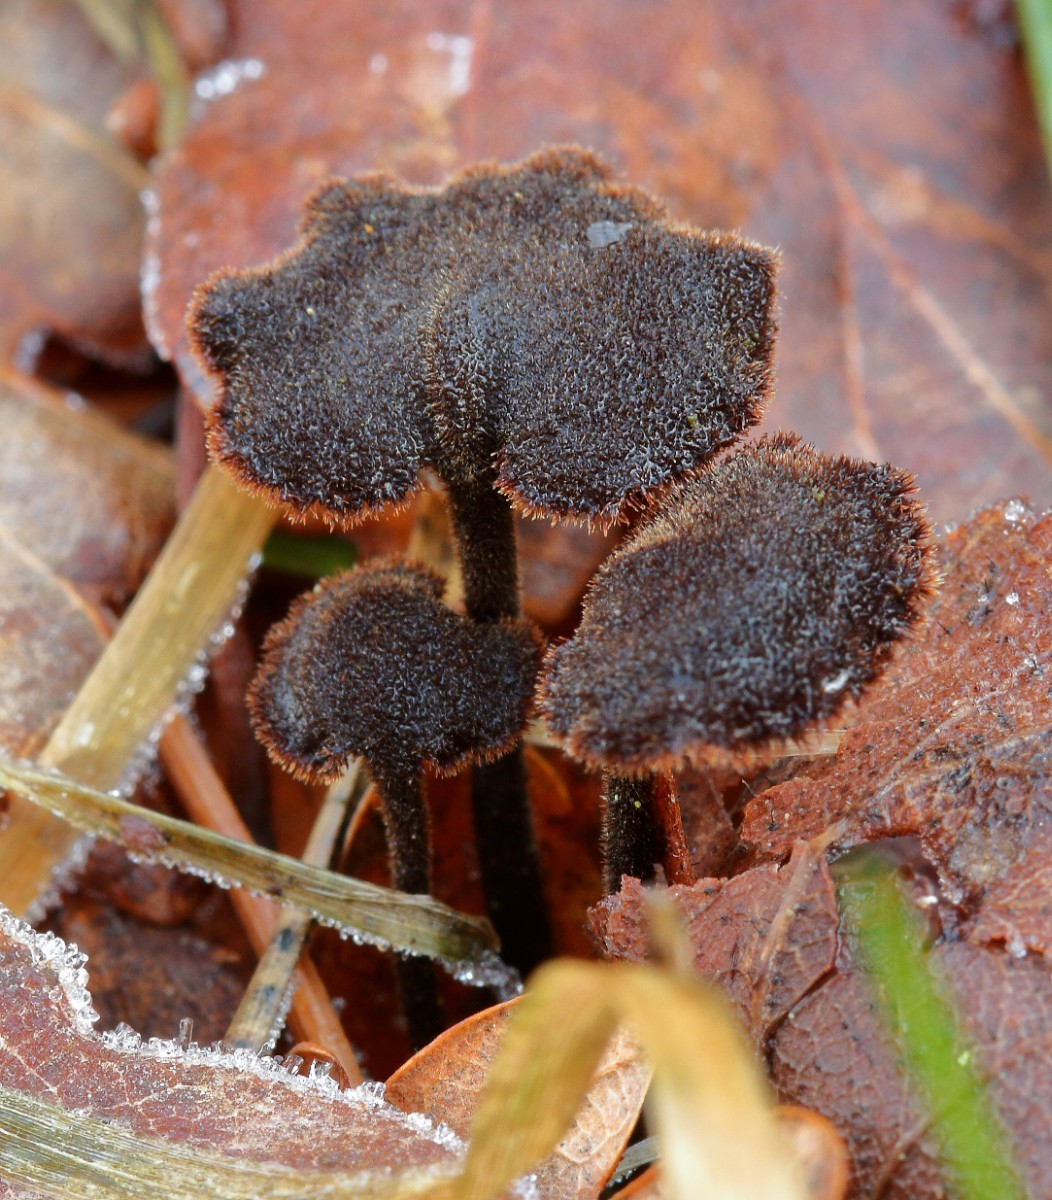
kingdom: Fungi
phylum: Basidiomycota
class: Agaricomycetes
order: Russulales
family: Auriscalpiaceae
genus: Auriscalpium
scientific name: Auriscalpium vulgare
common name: koglepigsvamp
